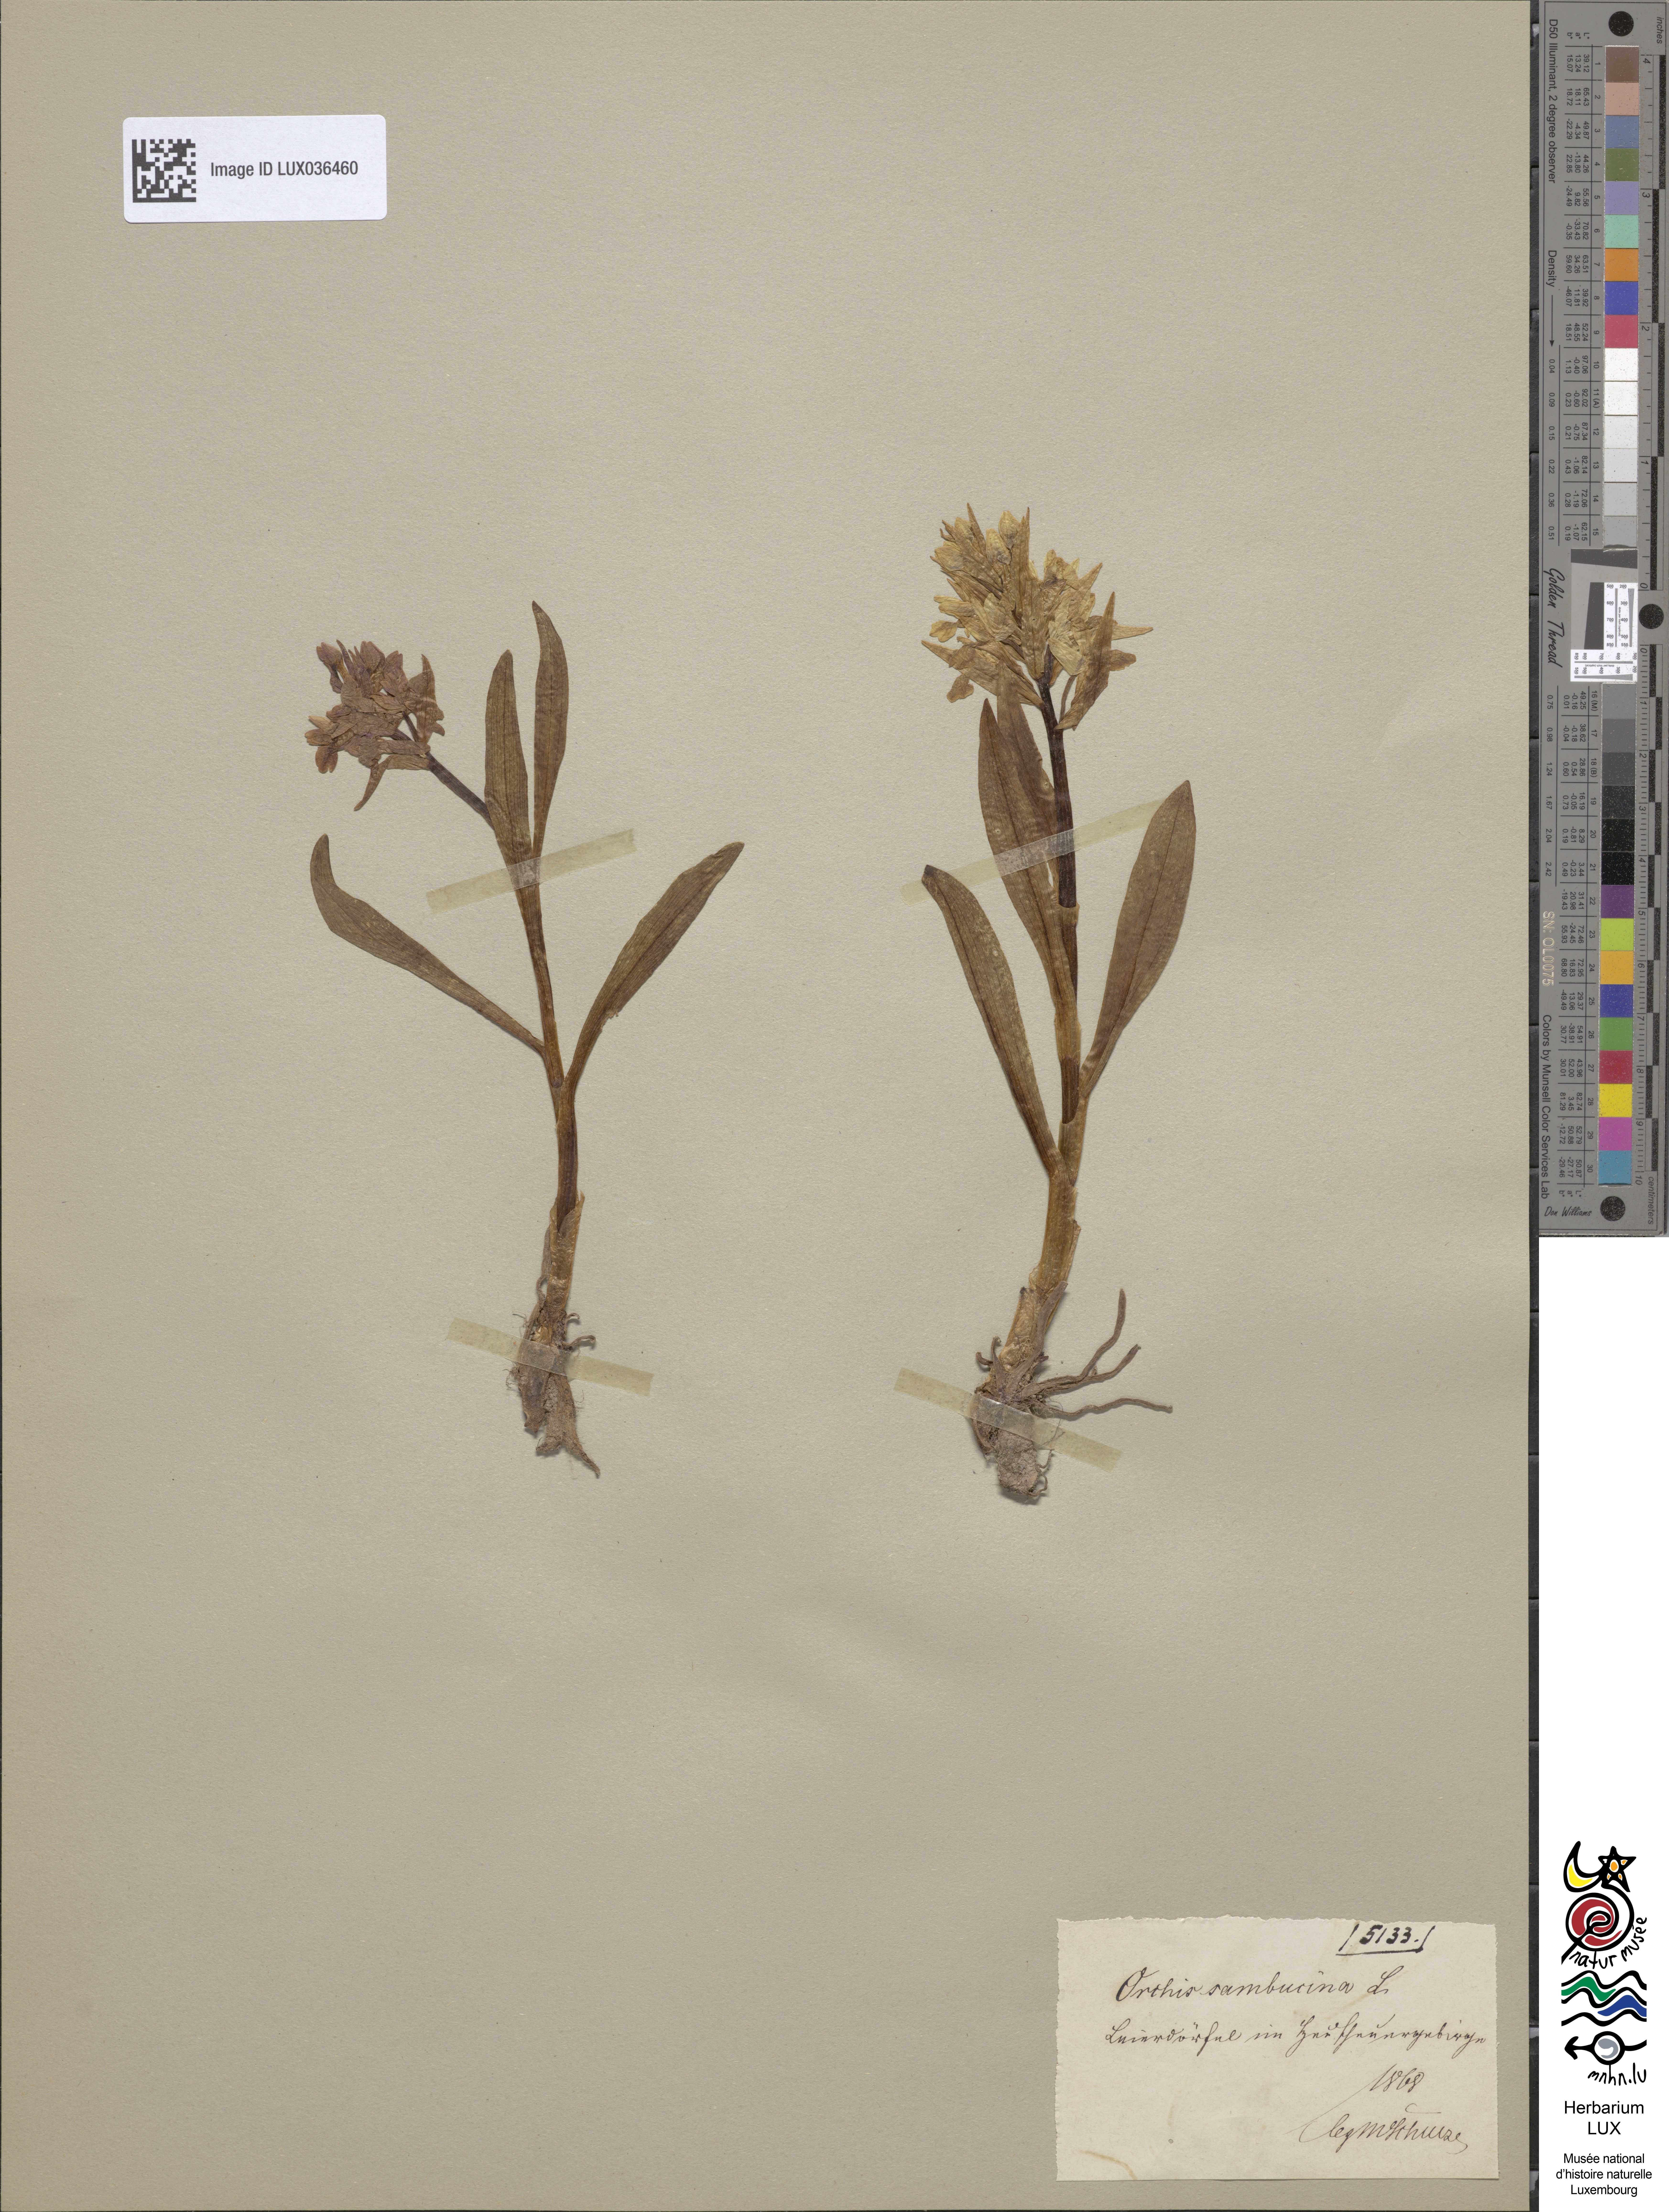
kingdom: Plantae
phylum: Tracheophyta
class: Liliopsida
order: Asparagales
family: Orchidaceae
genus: Dactylorhiza
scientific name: Dactylorhiza sambucina
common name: Elder-flowered orchid
